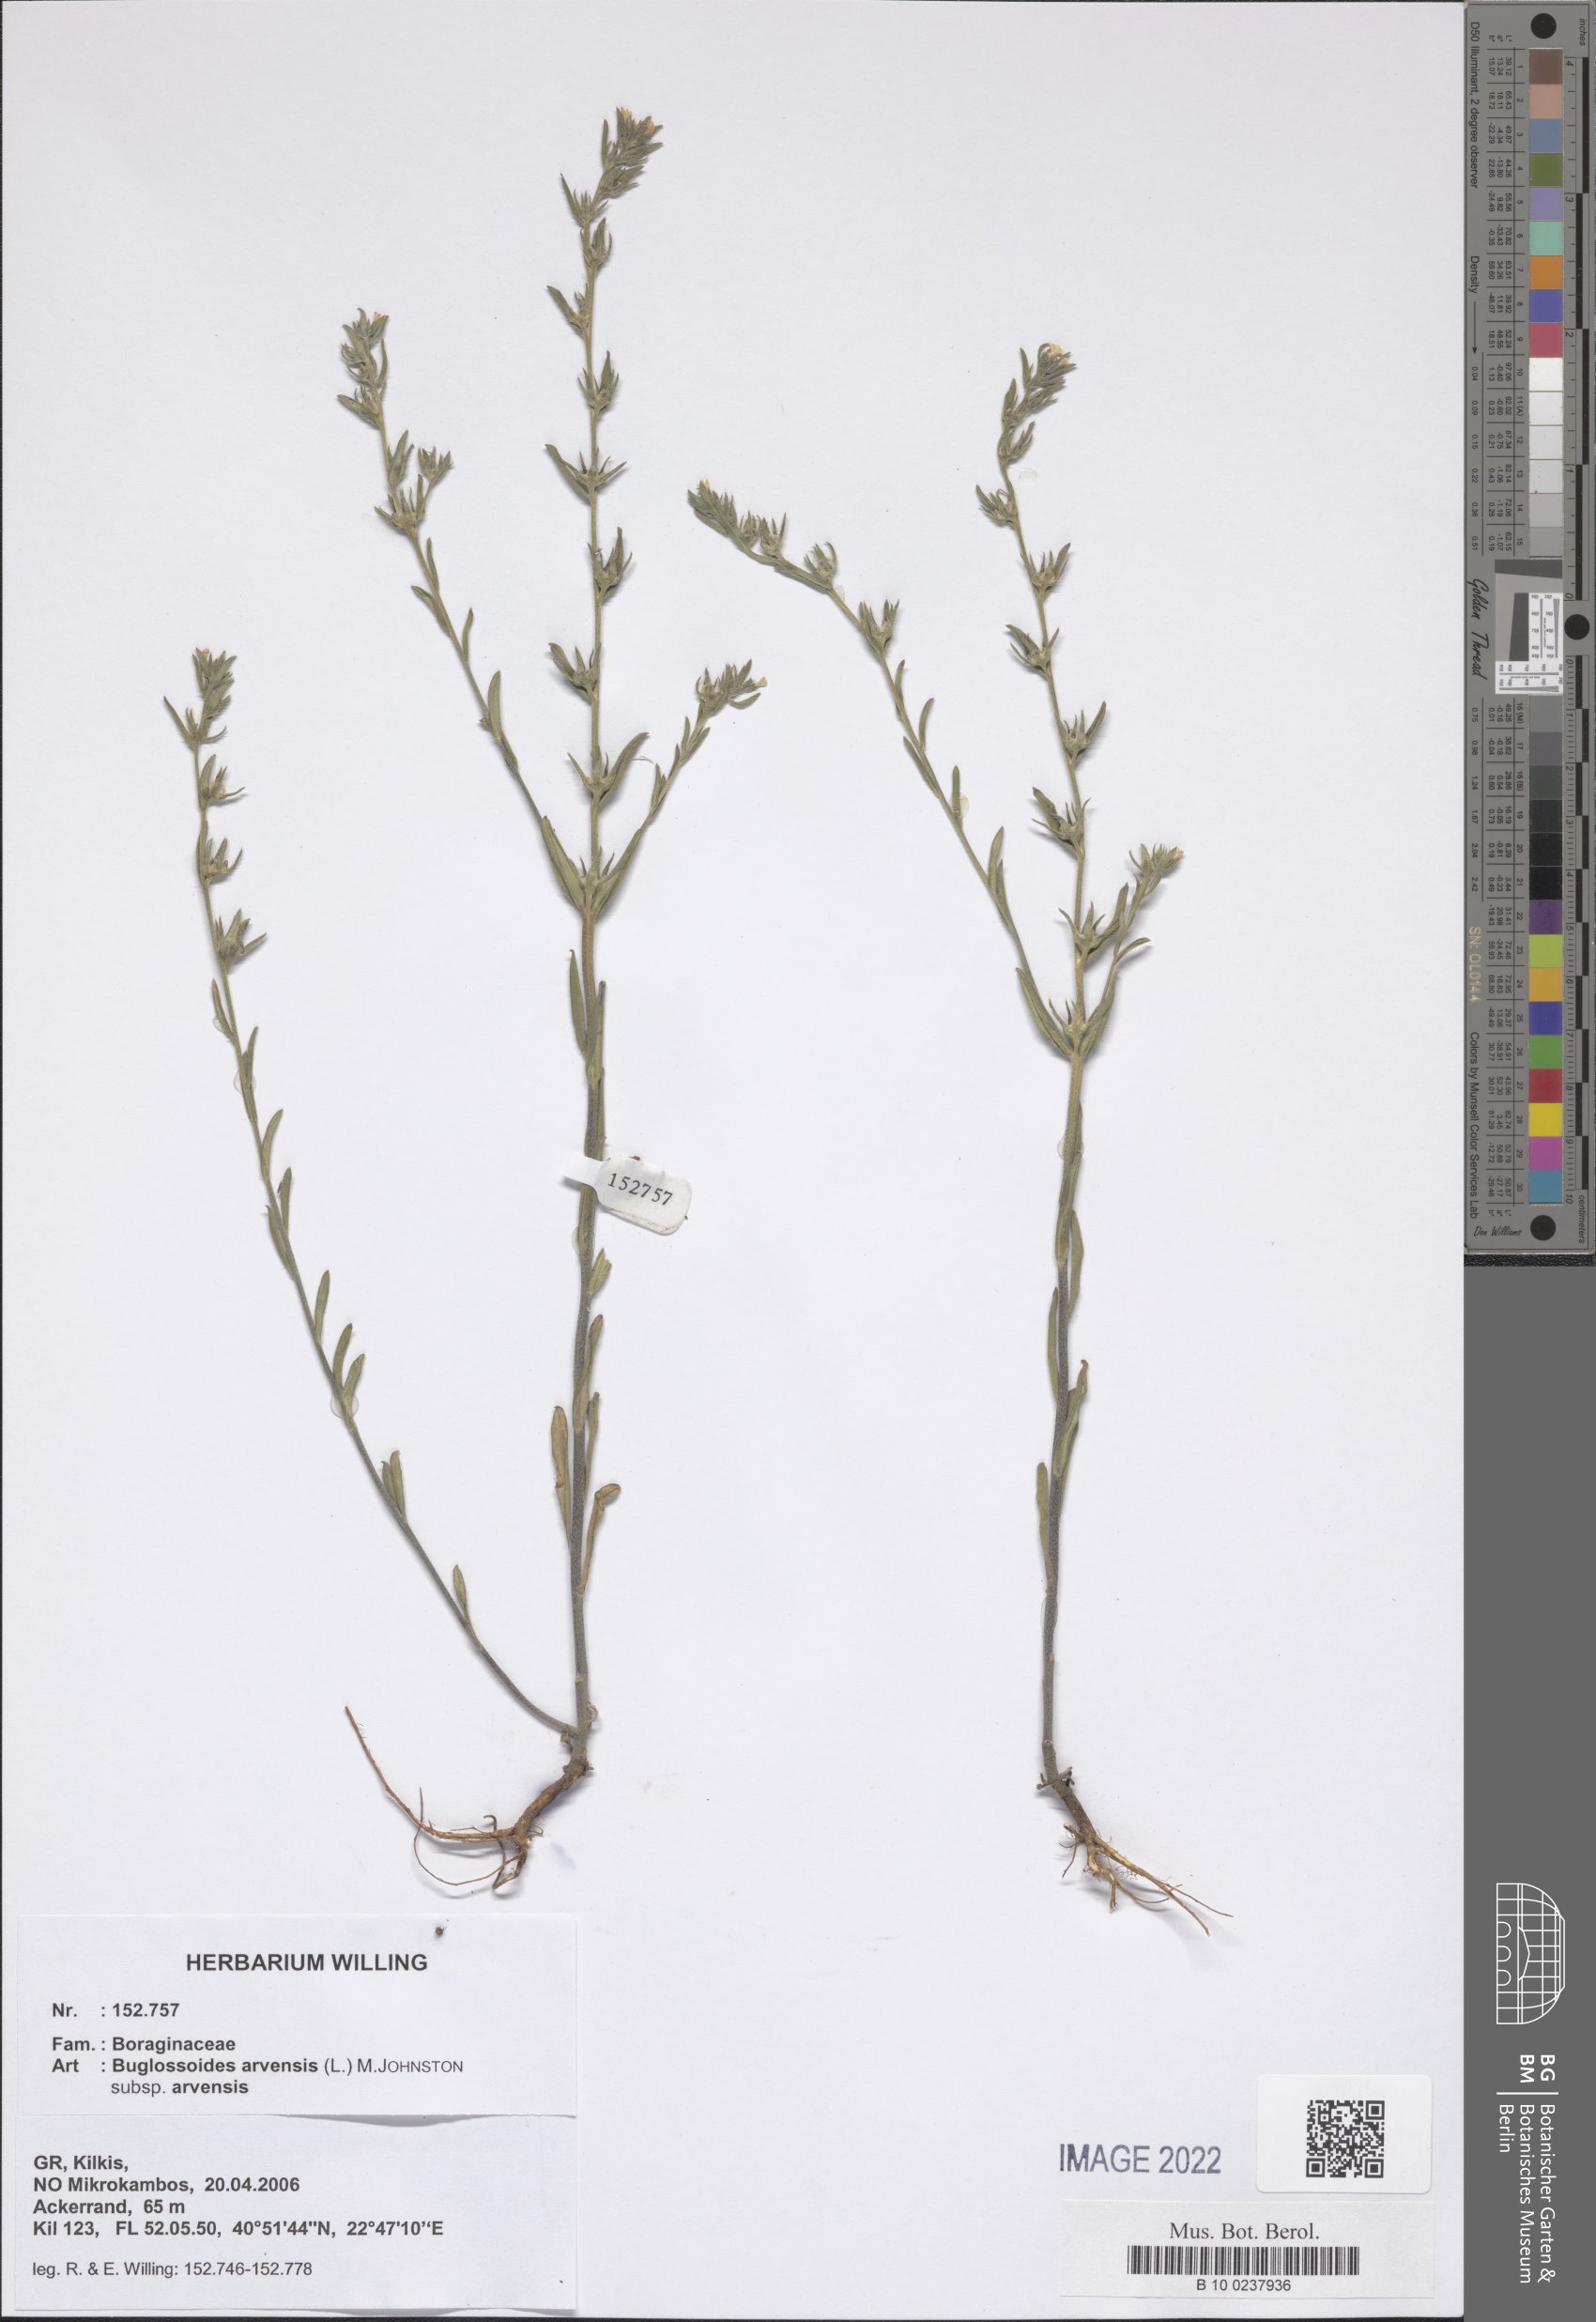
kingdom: Plantae
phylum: Tracheophyta
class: Magnoliopsida
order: Boraginales
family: Boraginaceae
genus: Buglossoides
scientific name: Buglossoides arvensis
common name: Corn gromwell
